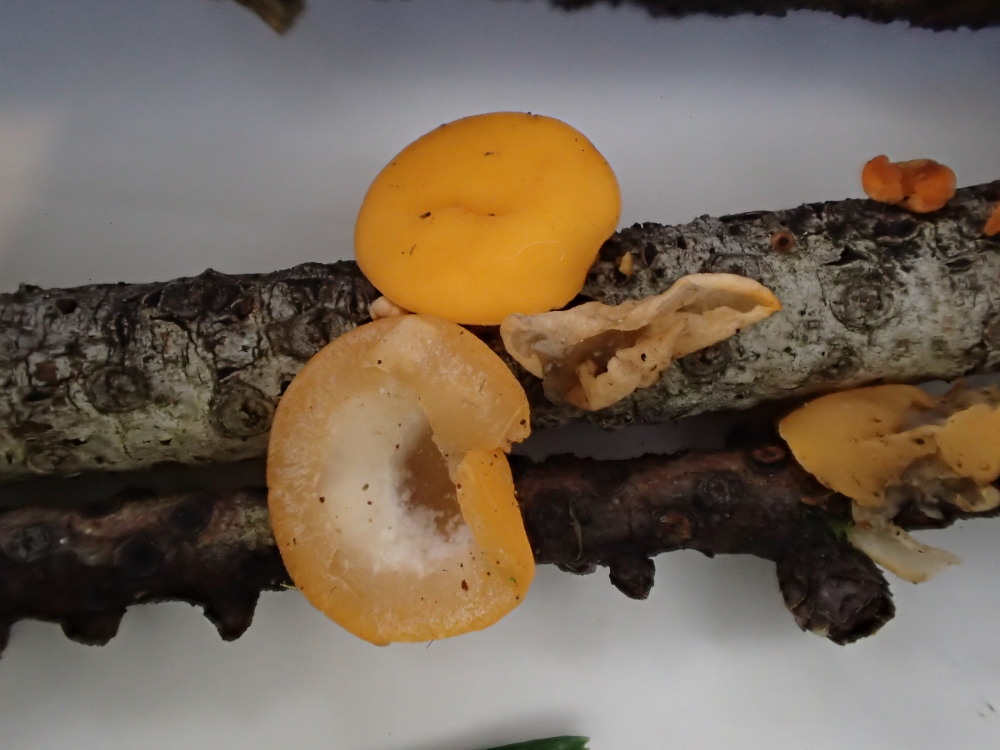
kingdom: Fungi
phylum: Ascomycota
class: Pezizomycetes
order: Pezizales
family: Sarcoscyphaceae
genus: Pithya
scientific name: Pithya vulgaris
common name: stor dukatbæger
